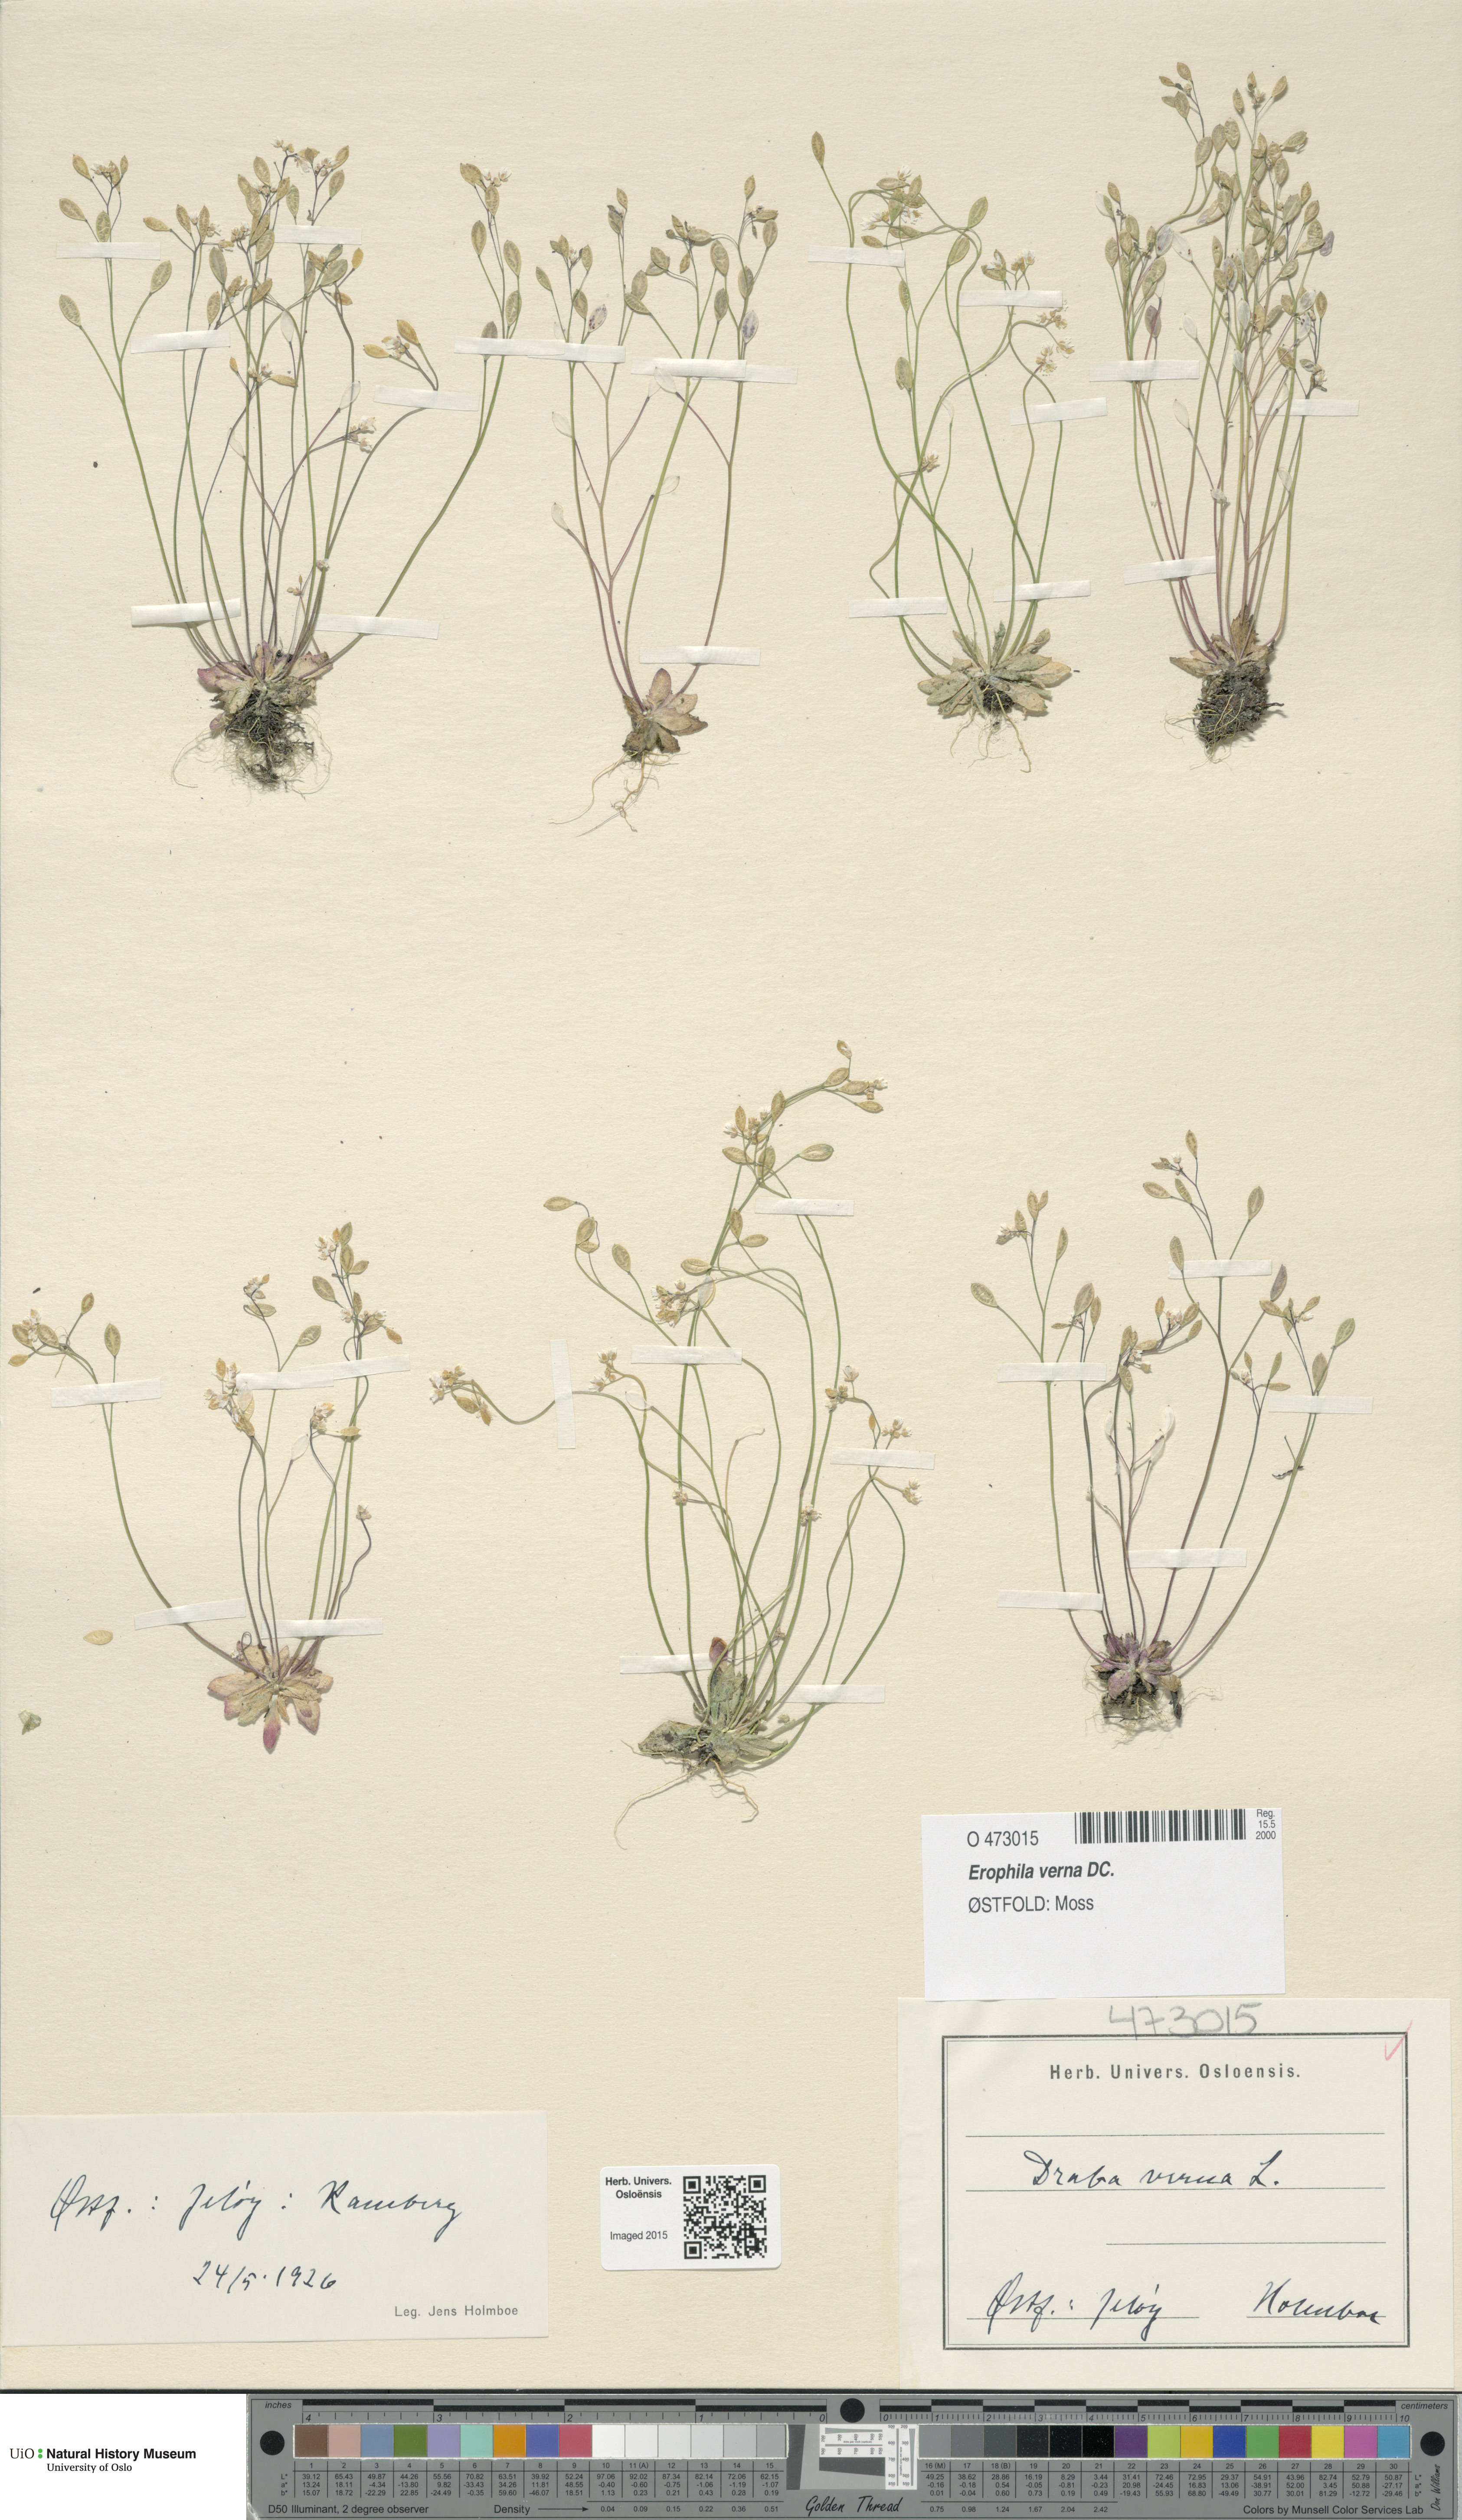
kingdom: Plantae
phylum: Tracheophyta
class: Magnoliopsida
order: Brassicales
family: Brassicaceae
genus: Draba
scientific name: Draba verna
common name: Spring draba
